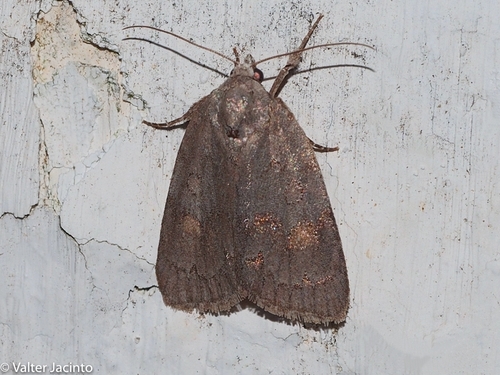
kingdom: Animalia
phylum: Arthropoda
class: Insecta
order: Lepidoptera
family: Noctuidae
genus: Bryonycta
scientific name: Bryonycta pineti
